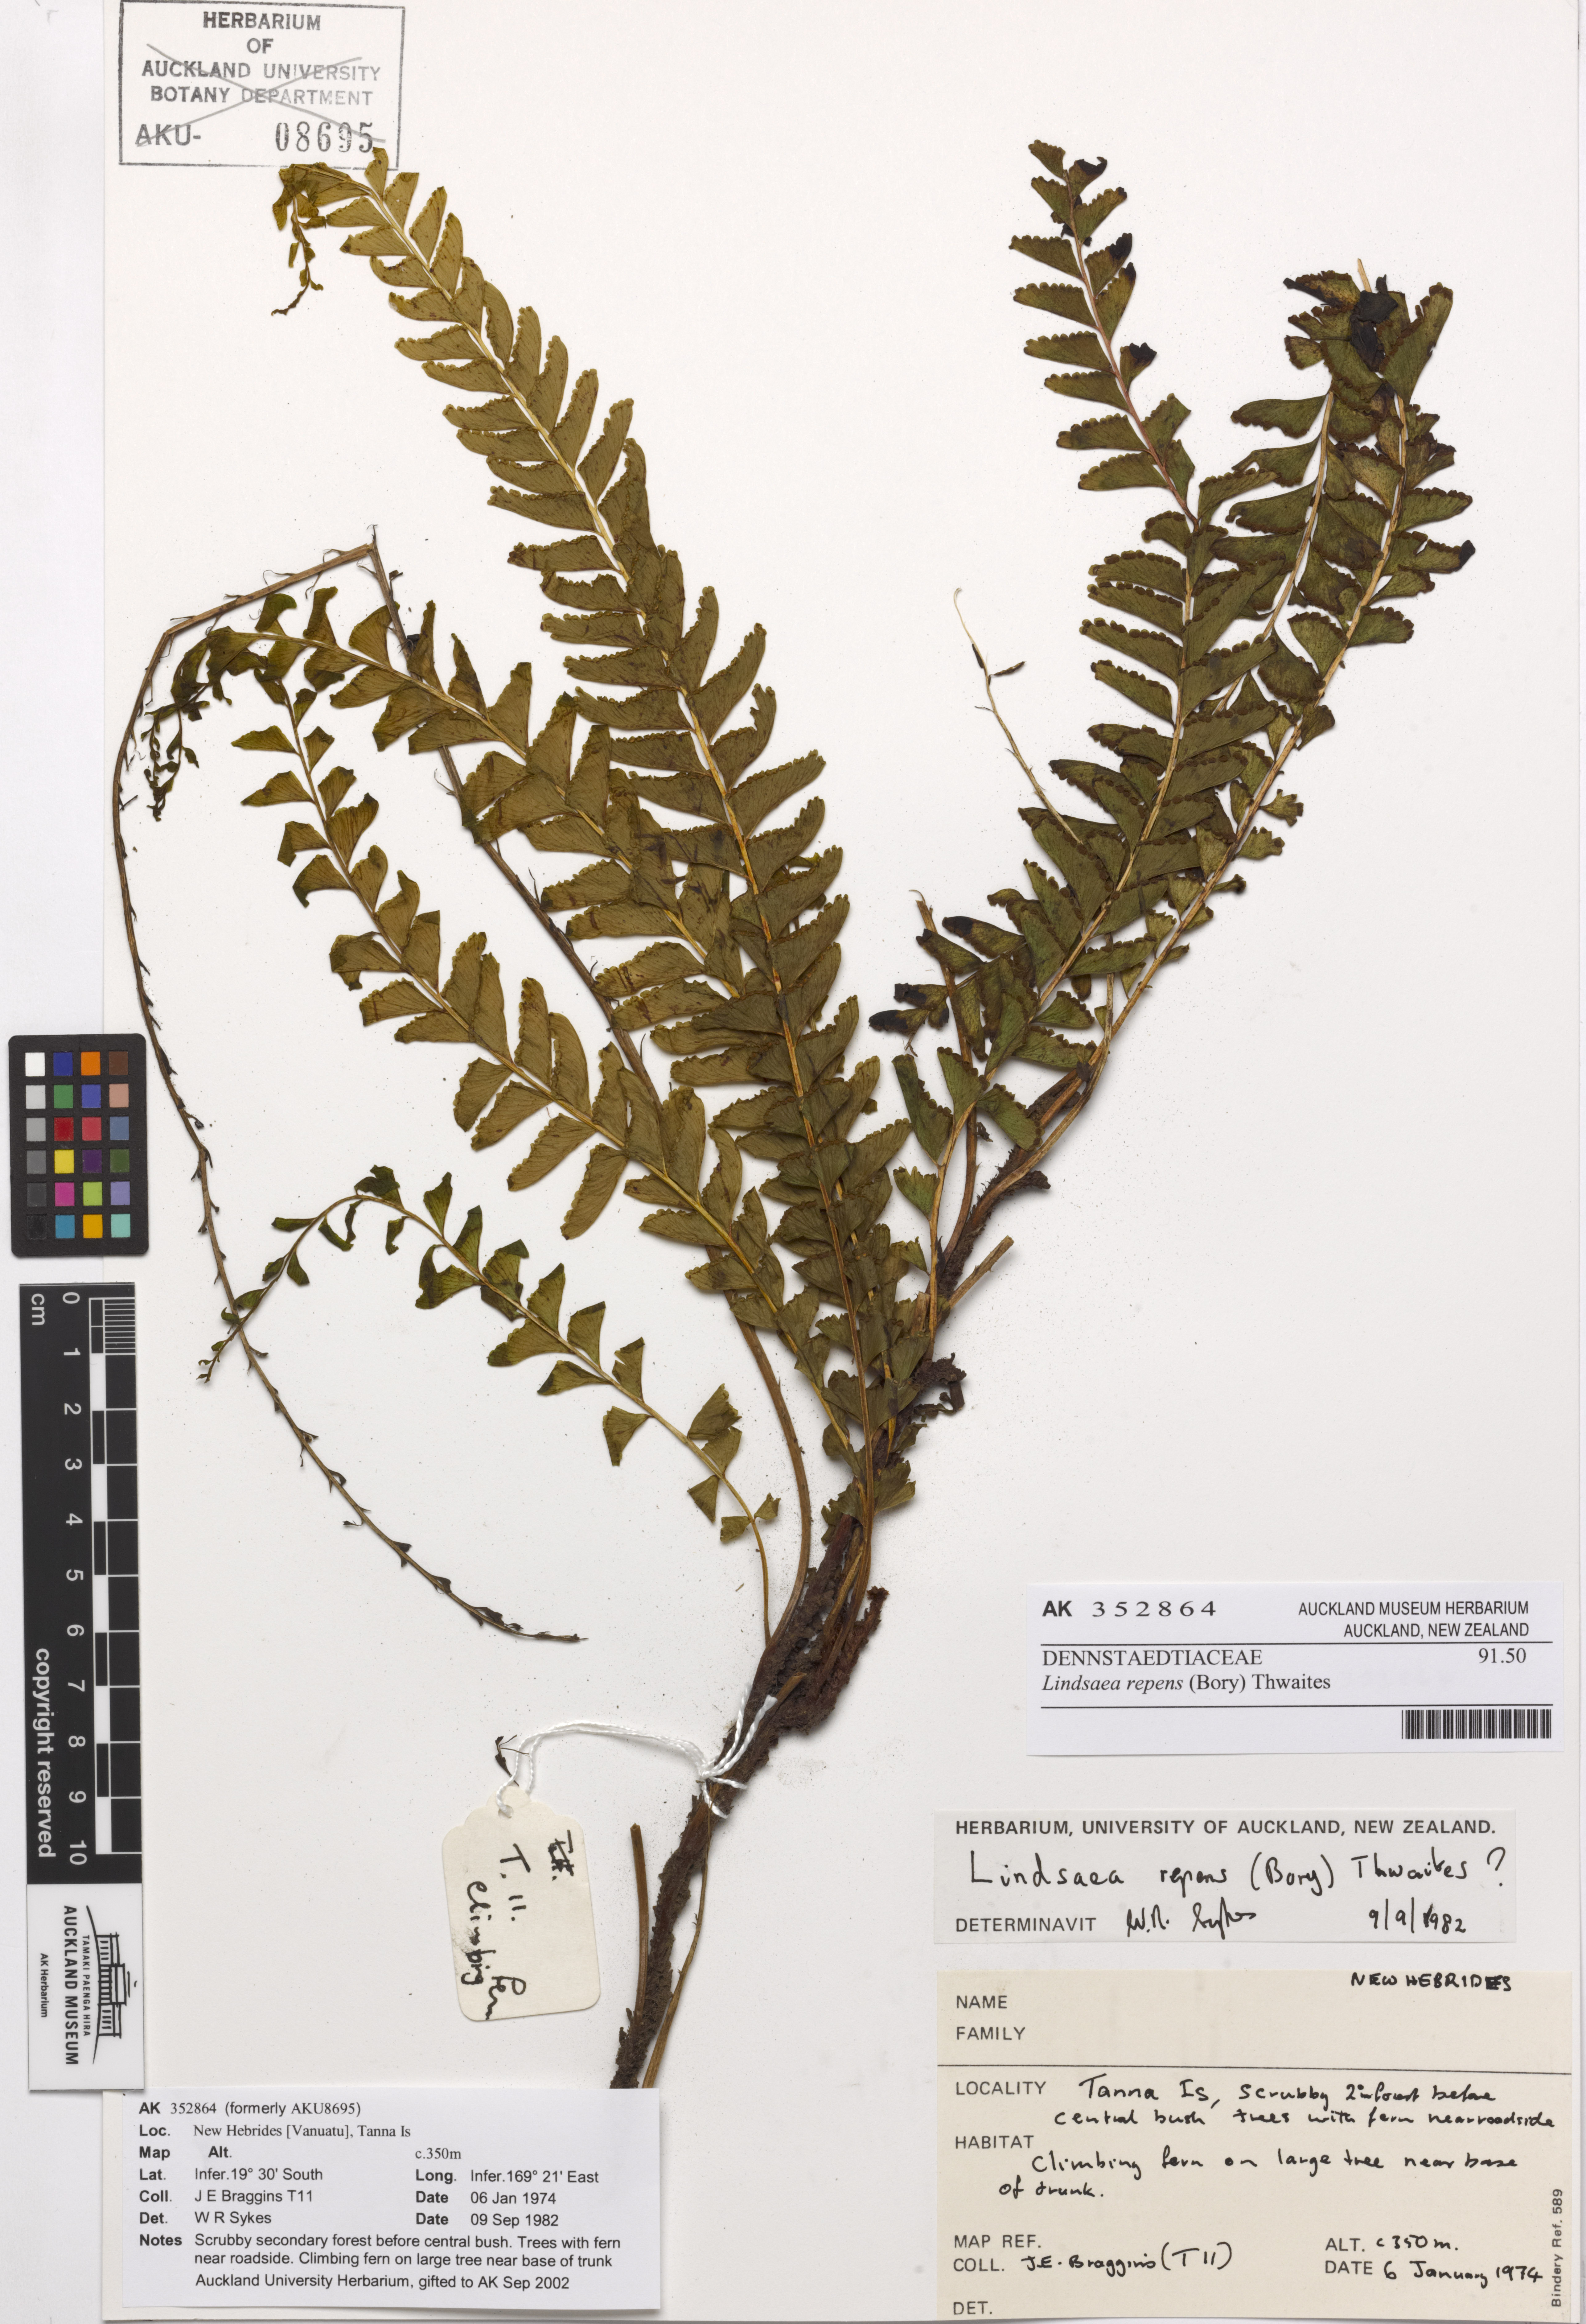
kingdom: Plantae
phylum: Tracheophyta
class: Polypodiopsida
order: Polypodiales
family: Lindsaeaceae
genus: Lindsaea
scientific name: Lindsaea capillacea
